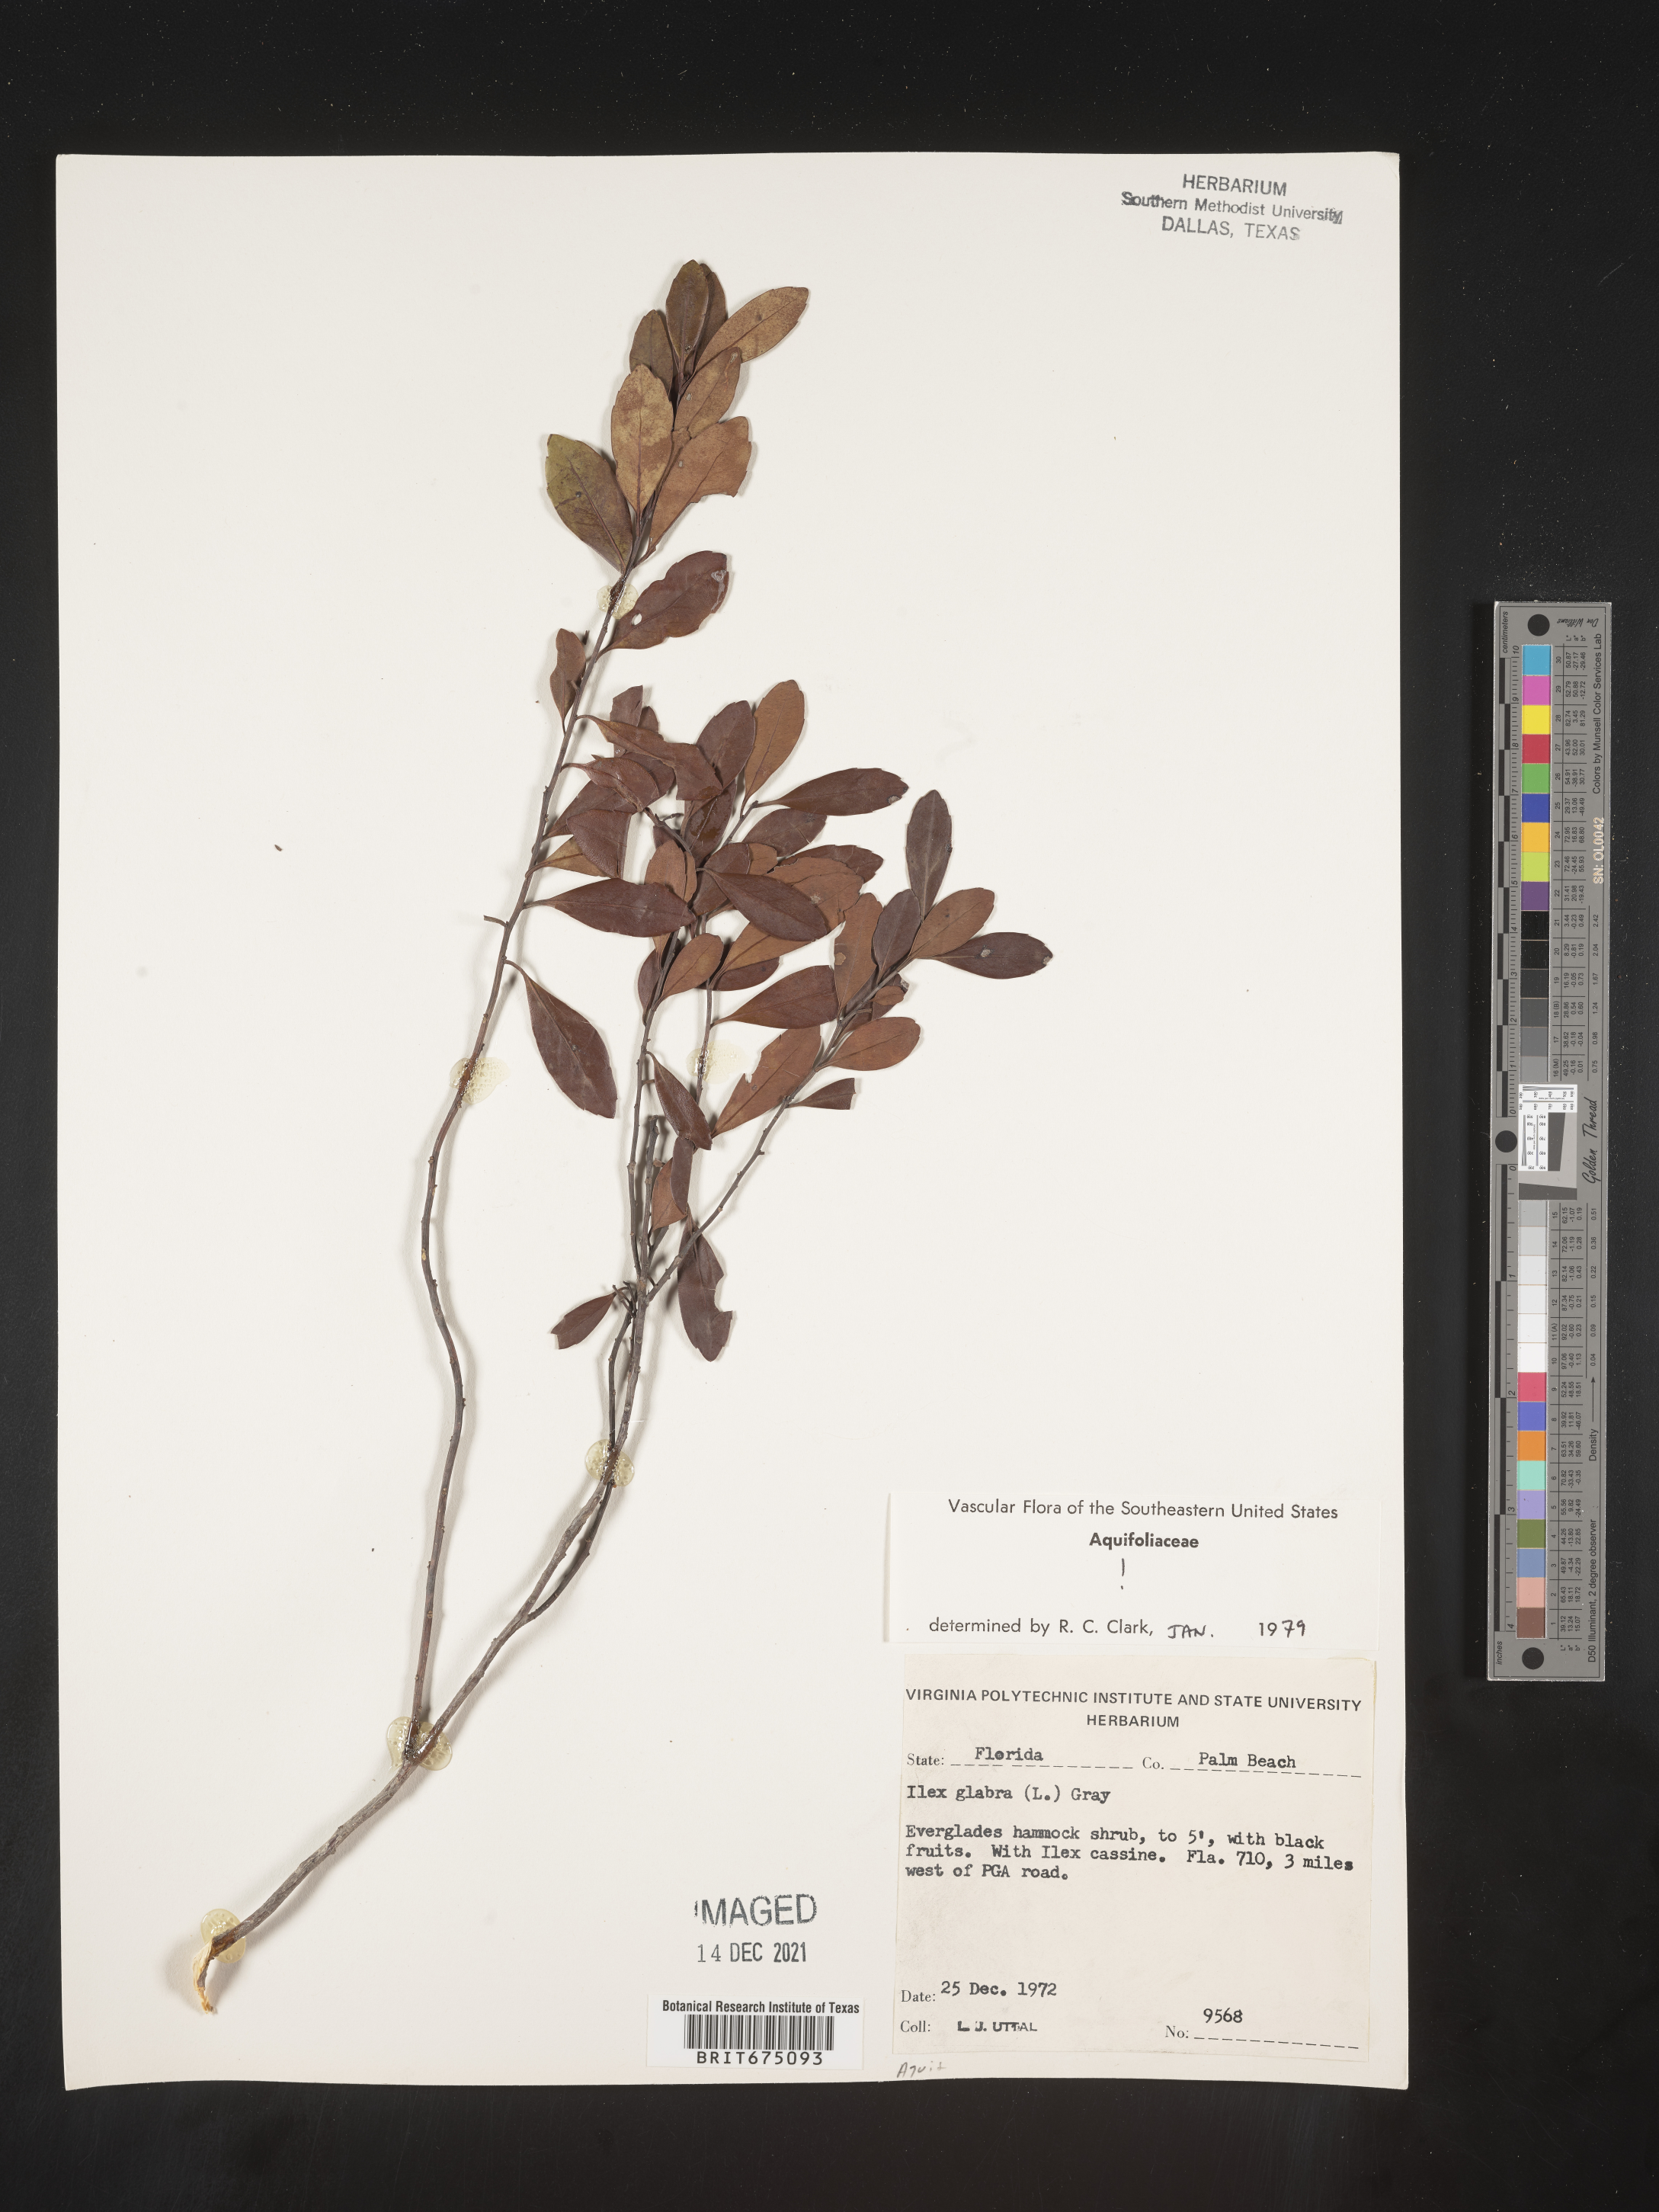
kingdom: Plantae
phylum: Tracheophyta
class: Magnoliopsida
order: Aquifoliales
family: Aquifoliaceae
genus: Ilex
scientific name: Ilex glabra
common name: Bitter gallberry
